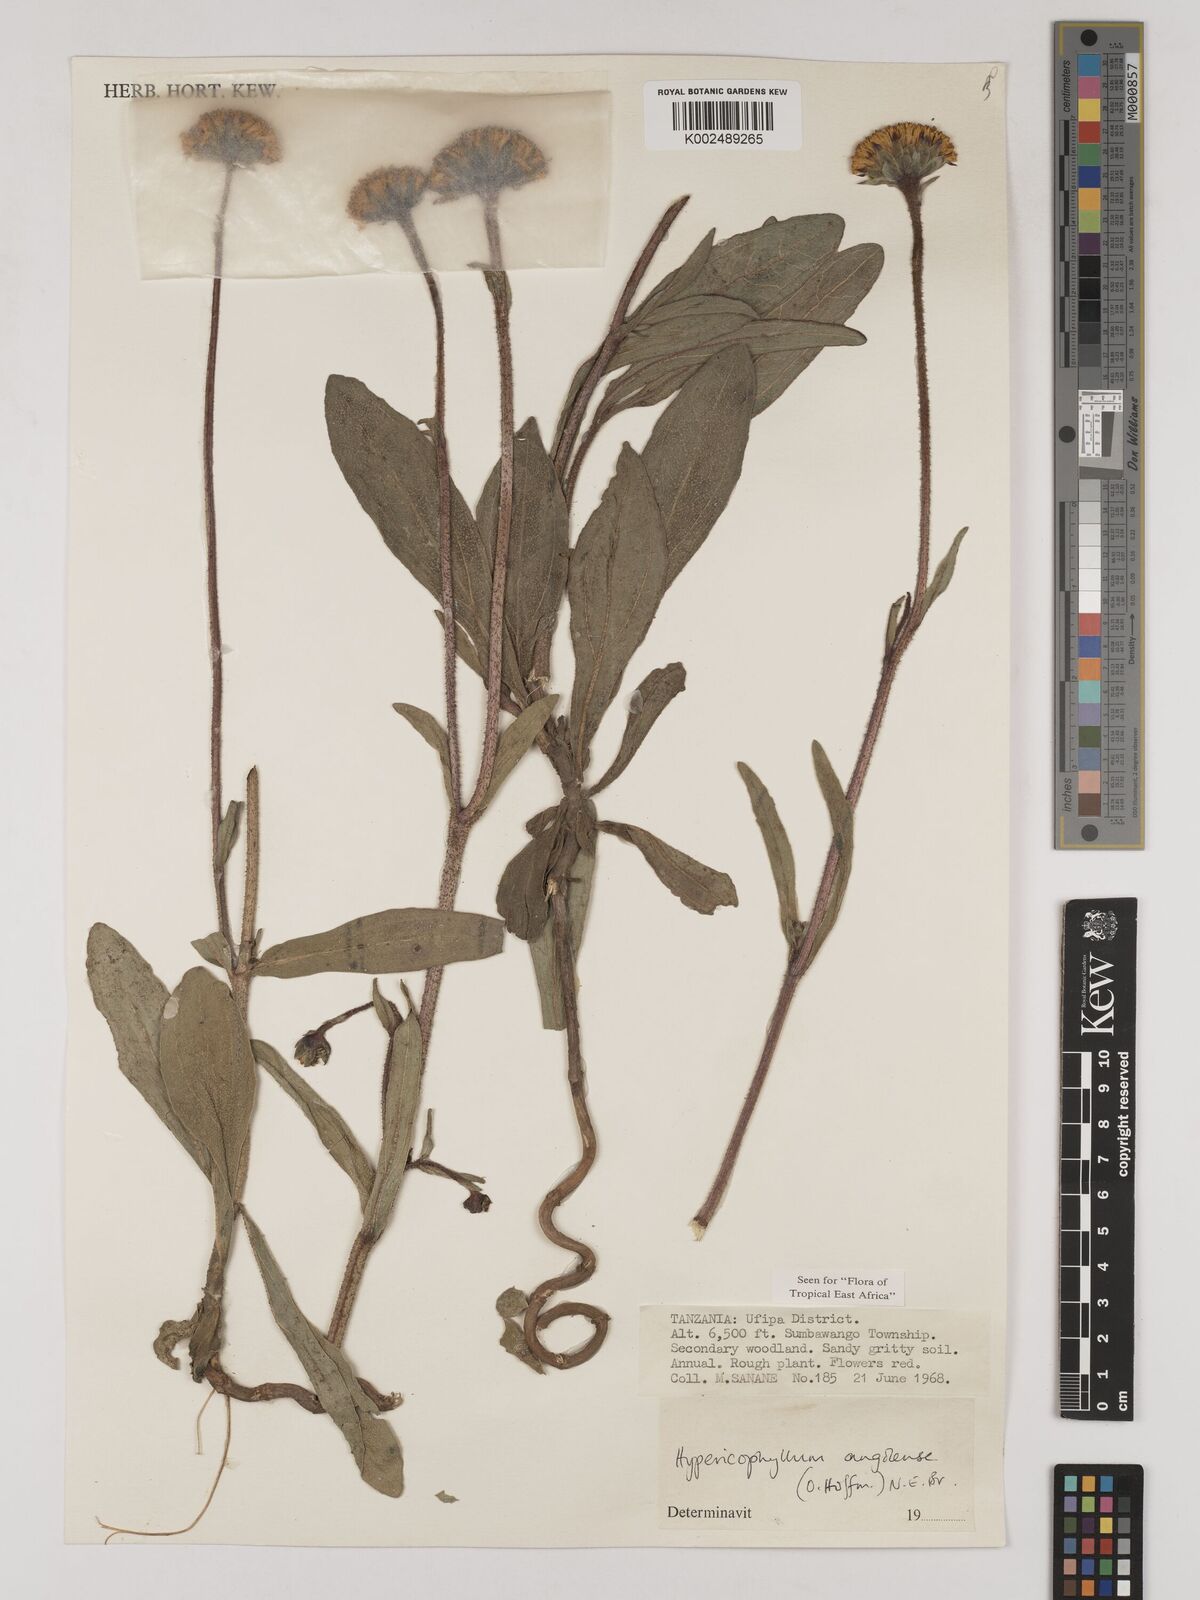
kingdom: Plantae
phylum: Tracheophyta
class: Magnoliopsida
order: Asterales
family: Asteraceae
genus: Hypericophyllum
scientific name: Hypericophyllum angolense
